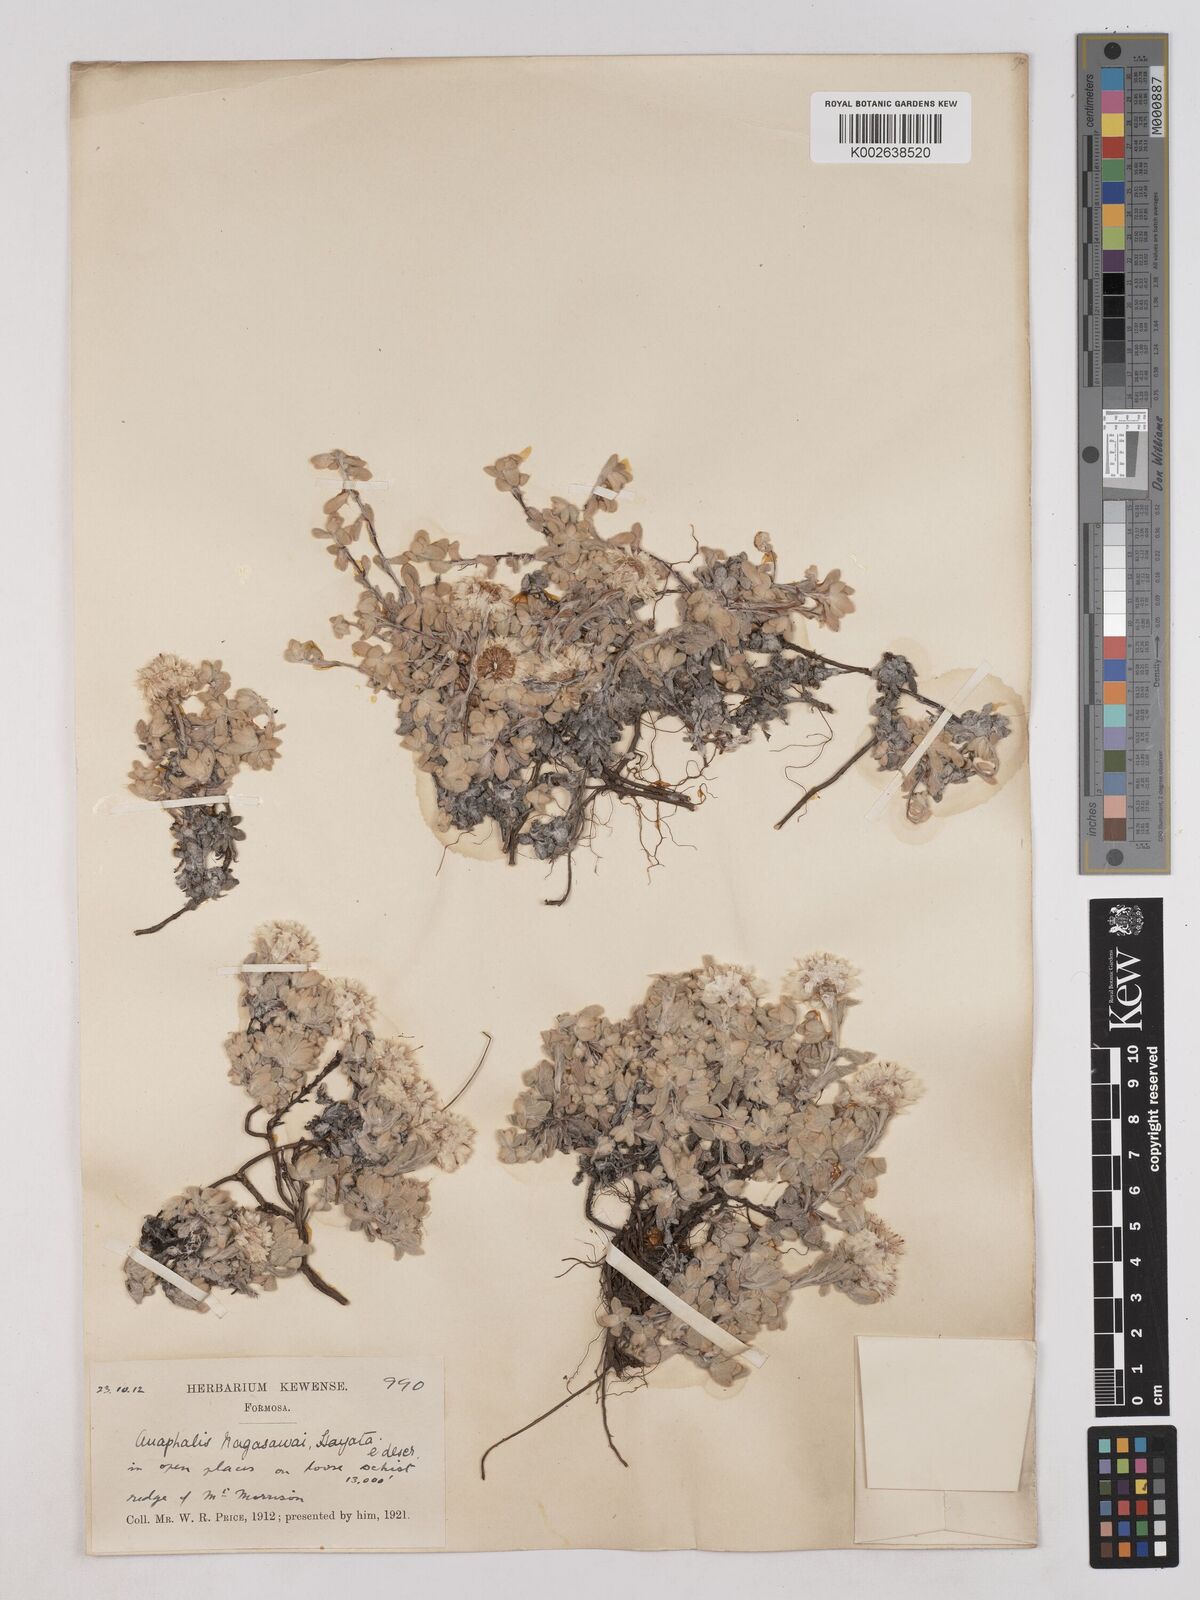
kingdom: Plantae
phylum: Tracheophyta
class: Magnoliopsida
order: Asterales
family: Asteraceae
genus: Anaphalis
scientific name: Anaphalis nagasawae
